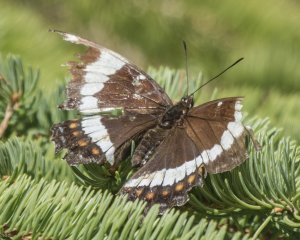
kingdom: Animalia
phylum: Arthropoda
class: Insecta
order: Lepidoptera
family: Nymphalidae
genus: Limenitis
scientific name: Limenitis arthemis
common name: Red-spotted Admiral
